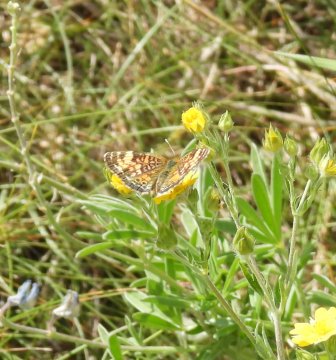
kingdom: Animalia
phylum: Arthropoda
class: Insecta
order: Lepidoptera
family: Nymphalidae
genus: Phyciodes
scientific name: Phyciodes tharos
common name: Northern Crescent
